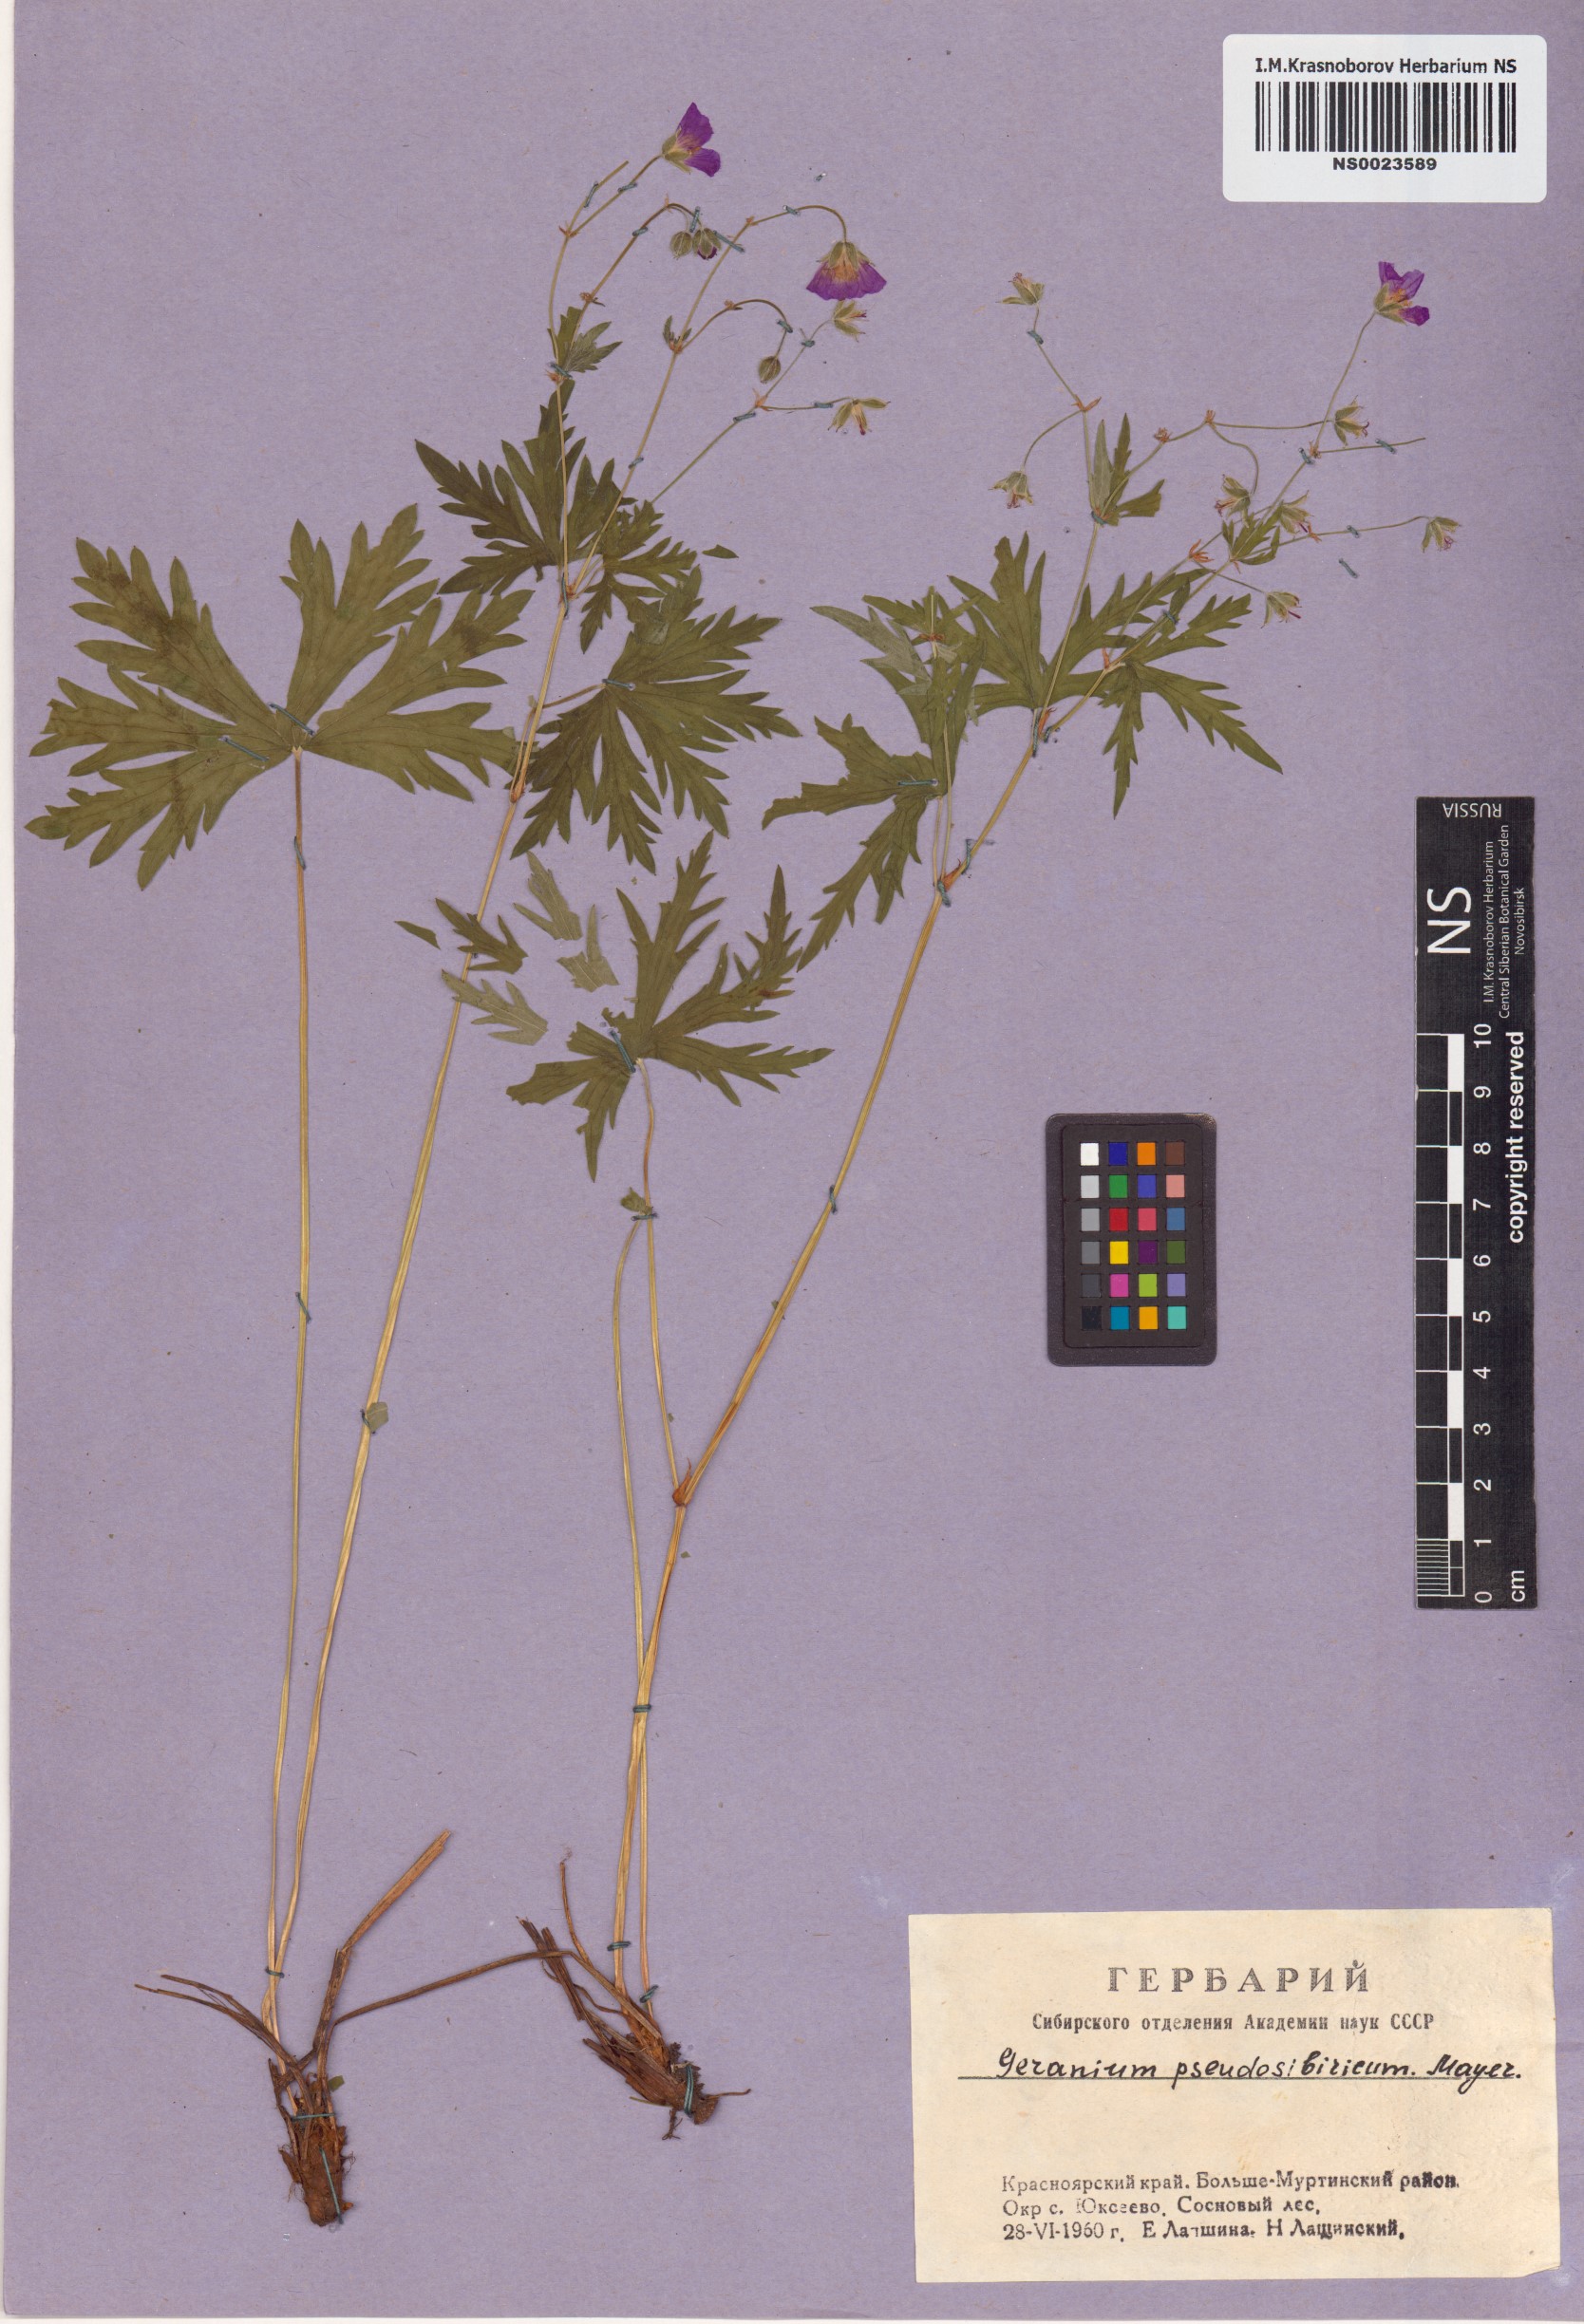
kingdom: Plantae
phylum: Tracheophyta
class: Magnoliopsida
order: Geraniales
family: Geraniaceae
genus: Geranium
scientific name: Geranium pseudosibiricum
